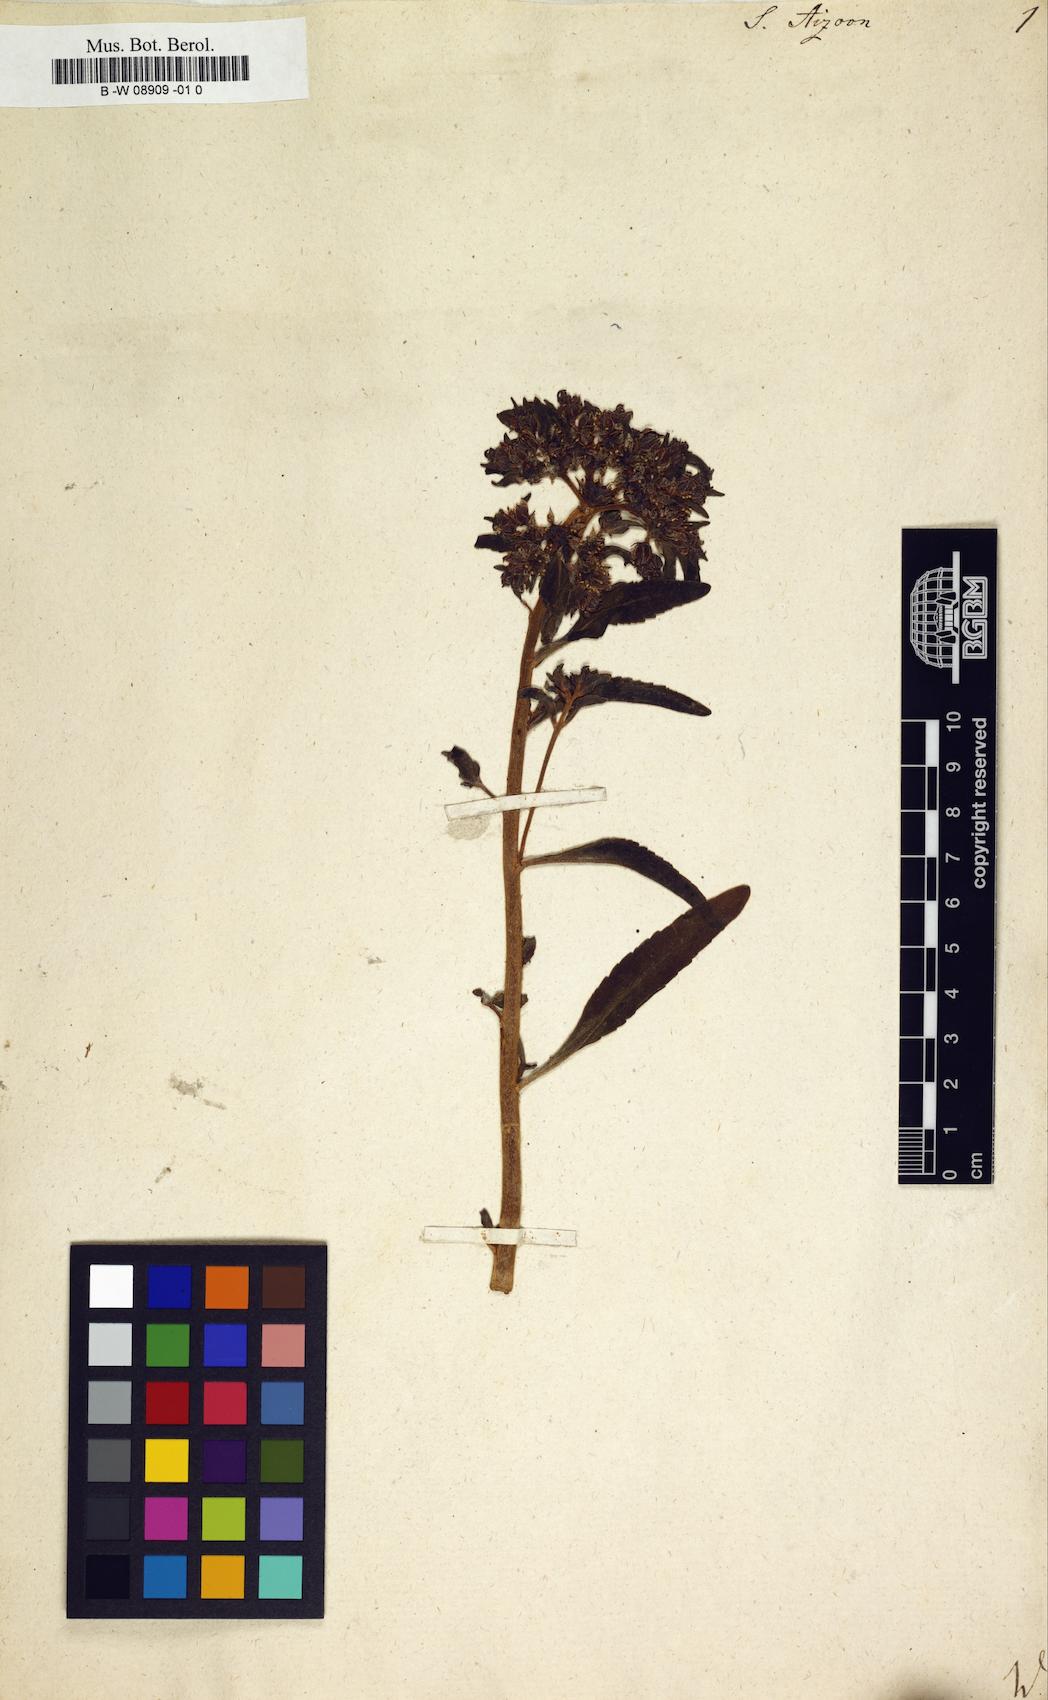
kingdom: Plantae
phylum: Tracheophyta
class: Magnoliopsida
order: Saxifragales
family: Crassulaceae
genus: Sedum
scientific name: Sedum aizoon
